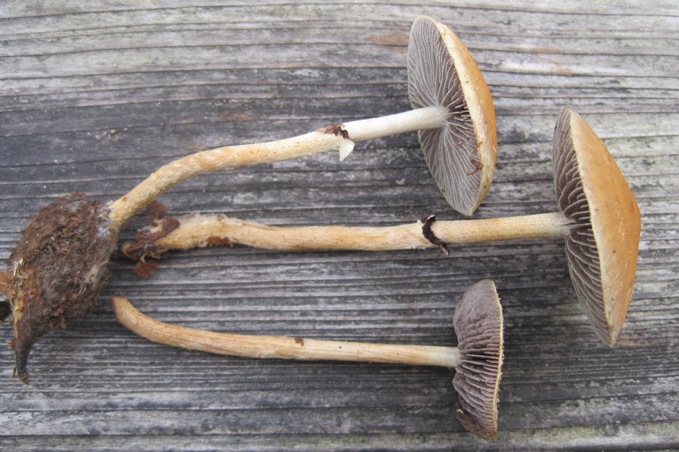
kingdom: Fungi
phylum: Basidiomycota
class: Agaricomycetes
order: Agaricales
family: Strophariaceae
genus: Leratiomyces
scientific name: Leratiomyces squamosus
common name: skællet bredblad
